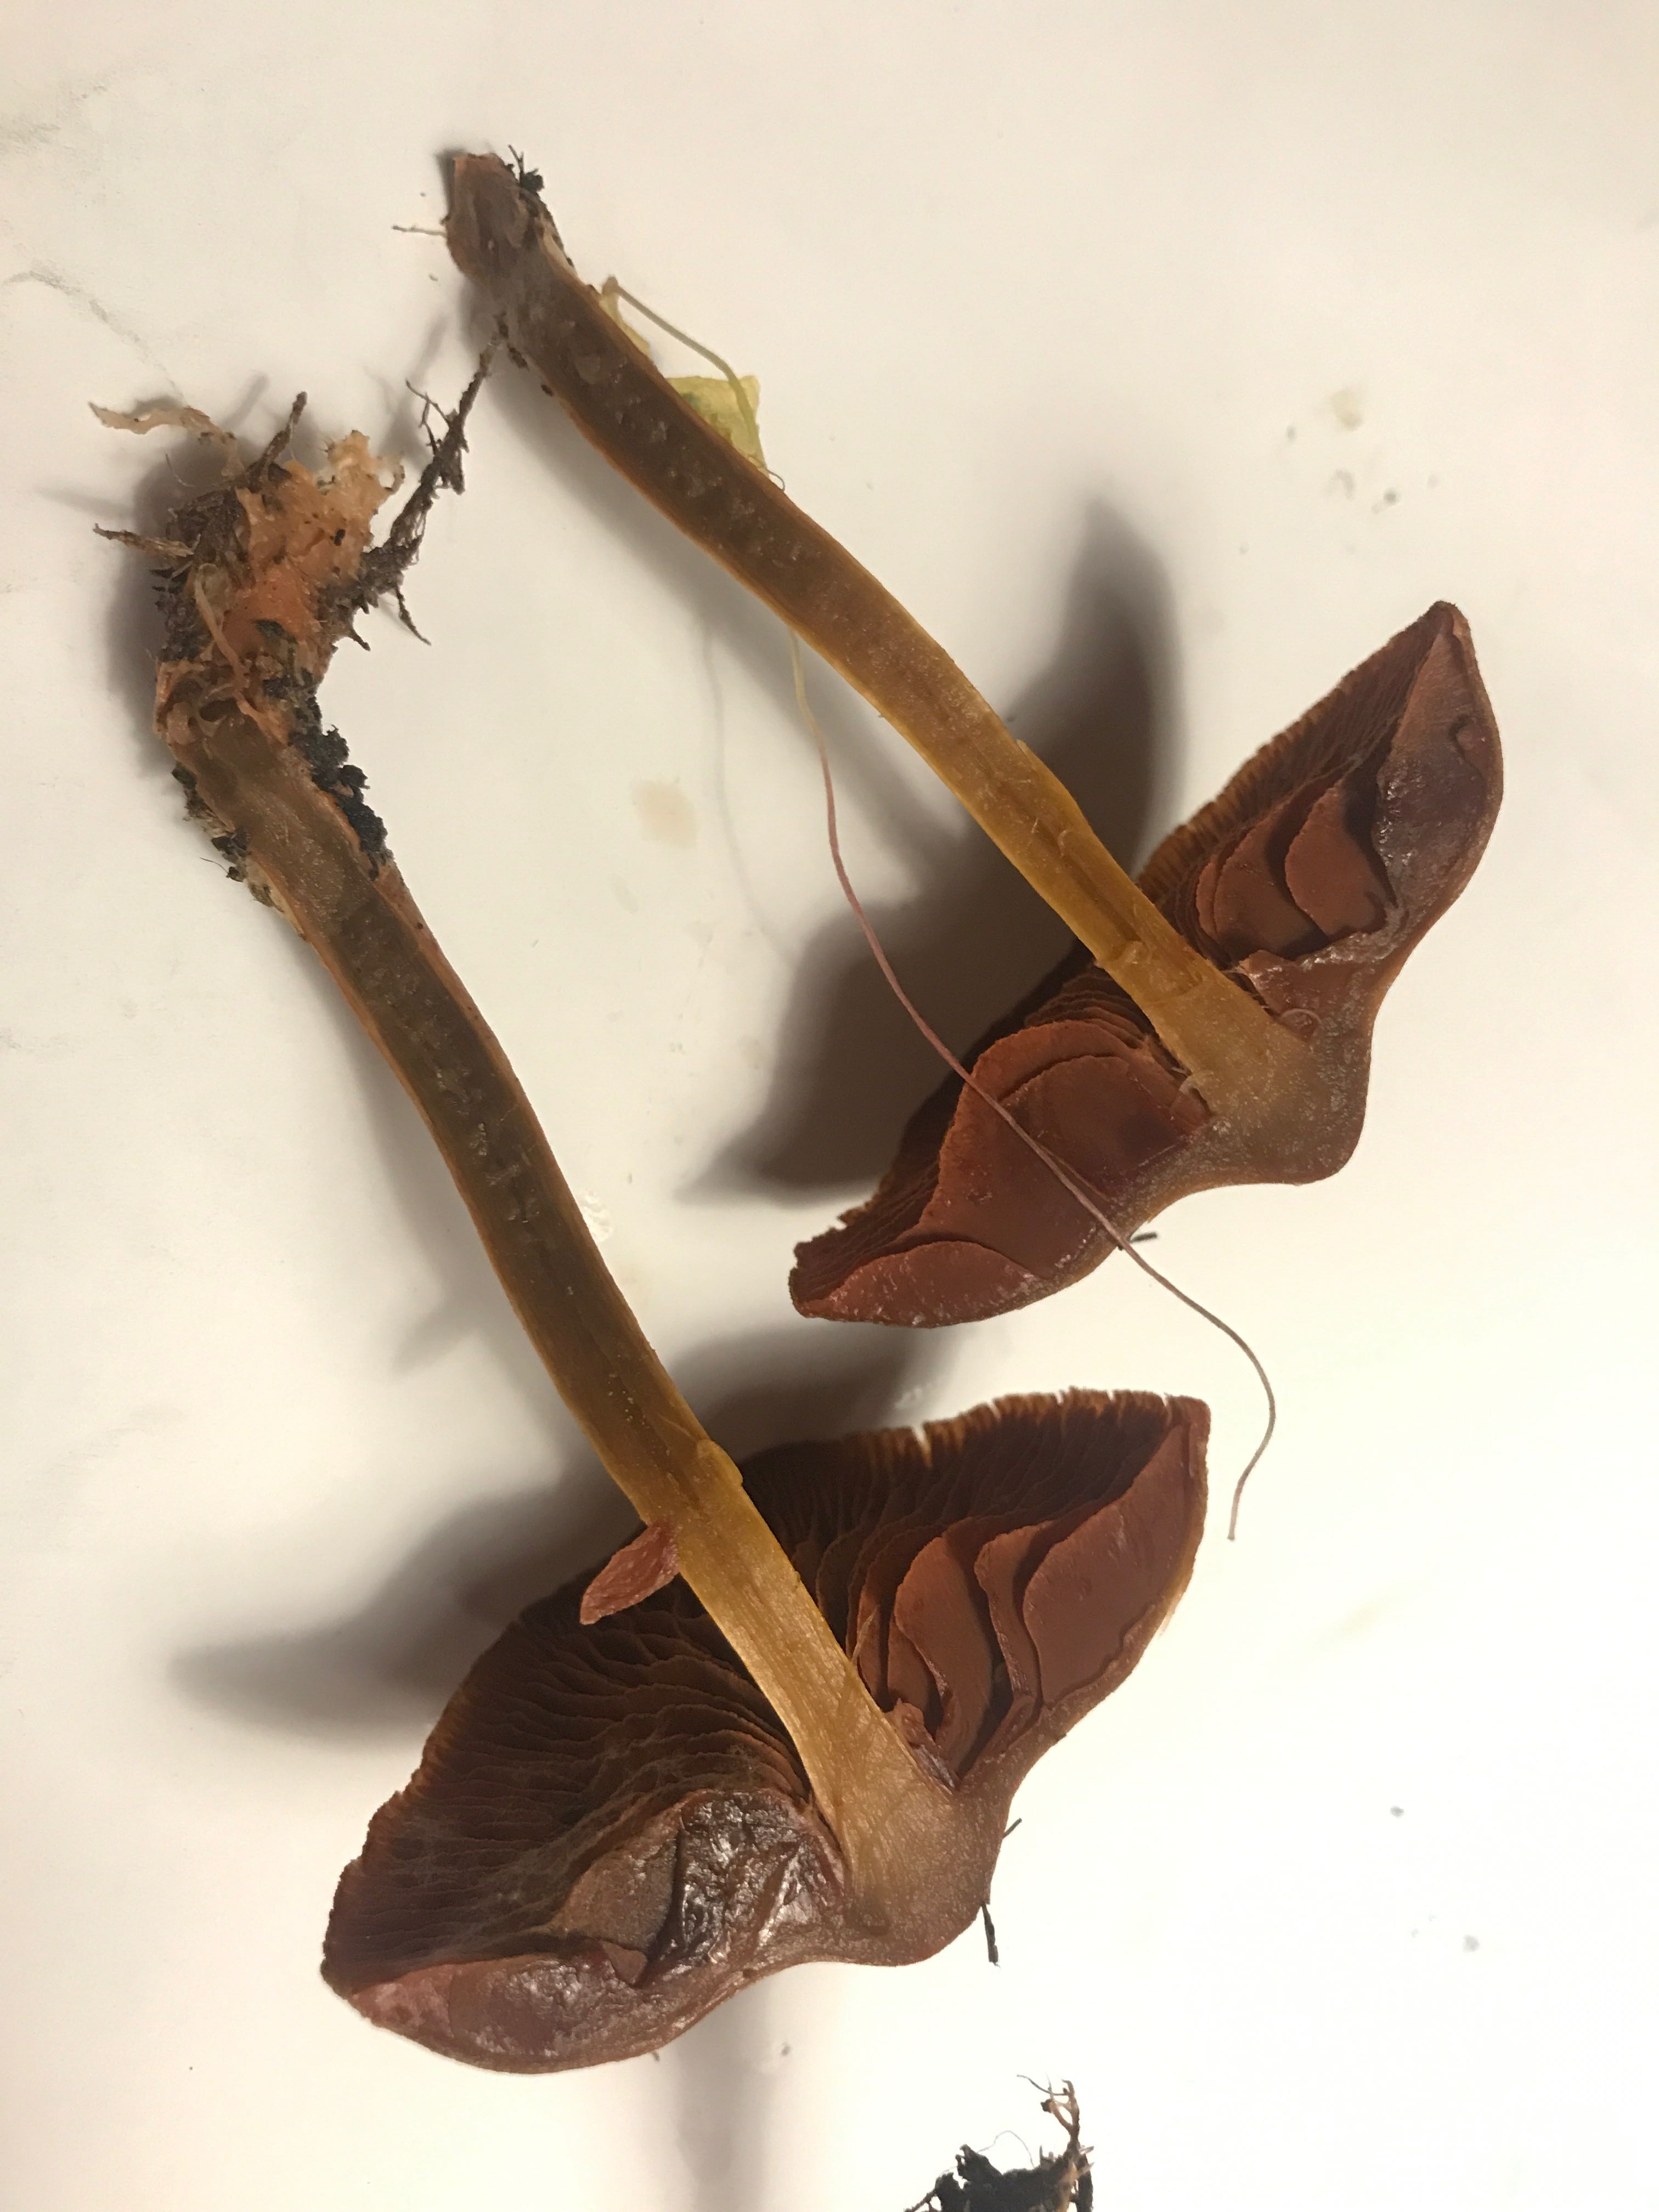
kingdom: Fungi
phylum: Basidiomycota
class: Agaricomycetes
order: Agaricales
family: Cortinariaceae
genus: Cortinarius
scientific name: Cortinarius
